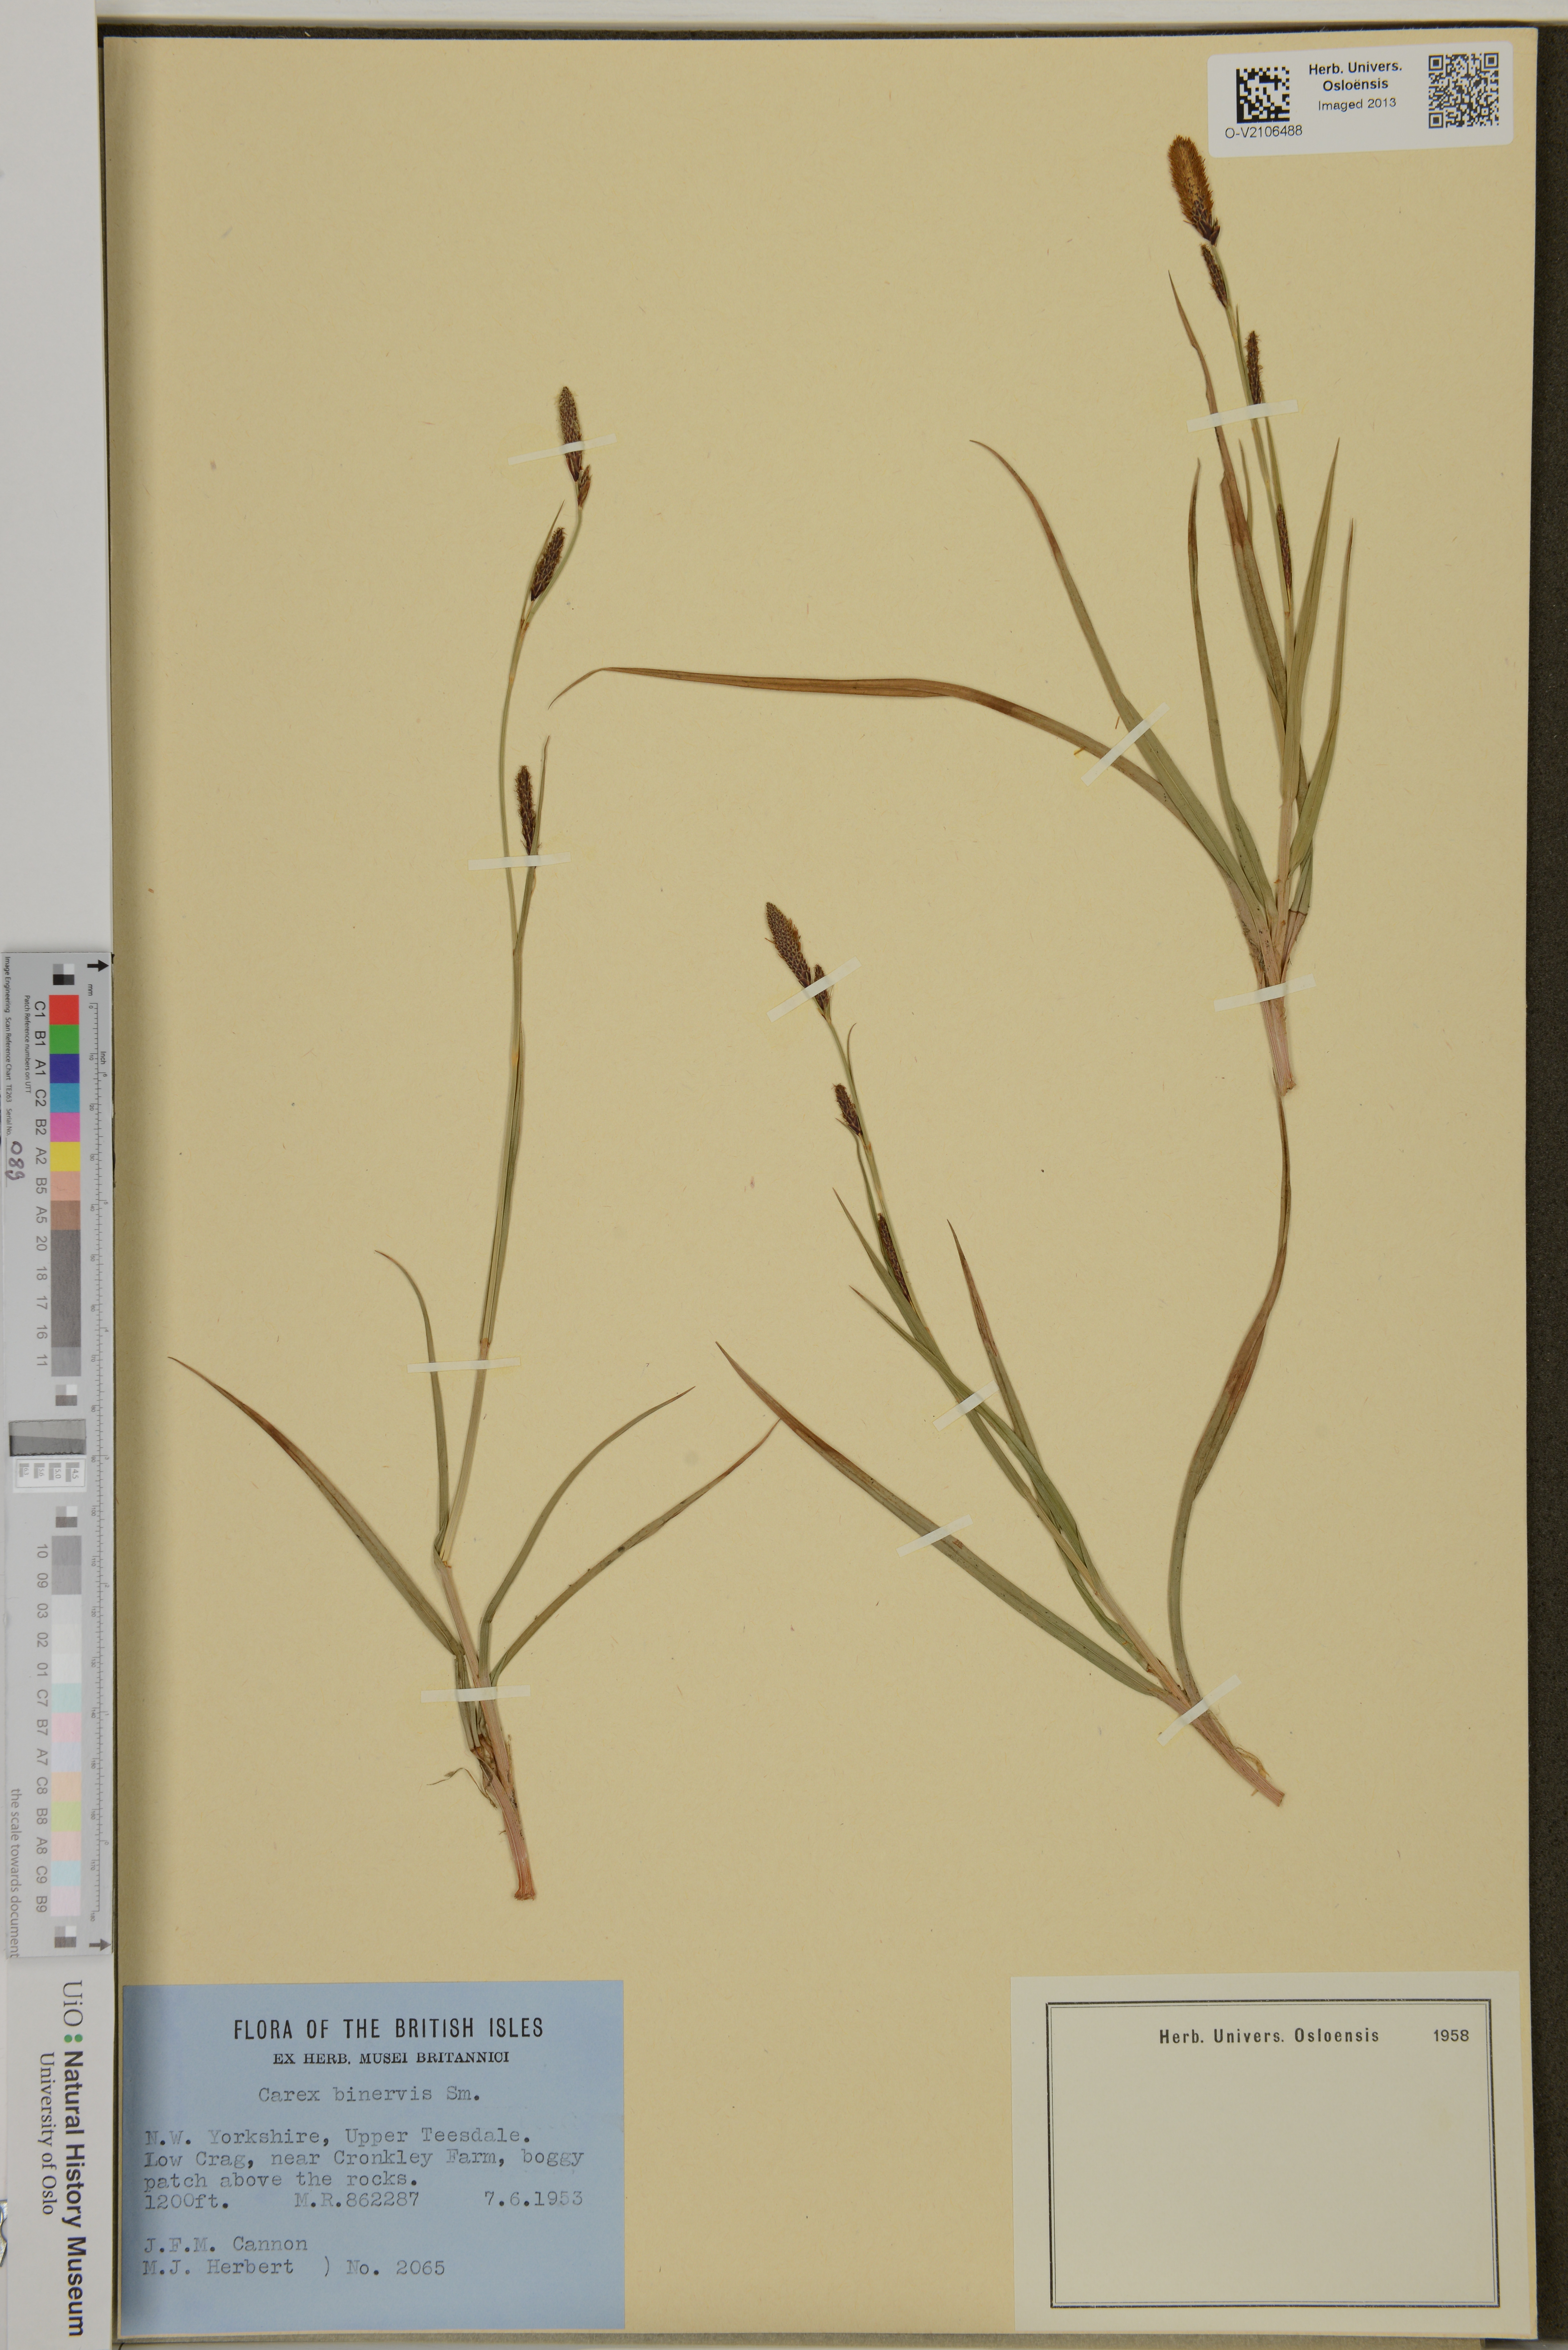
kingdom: Plantae
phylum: Tracheophyta
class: Liliopsida
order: Poales
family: Cyperaceae
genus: Carex
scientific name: Carex binervis
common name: Green-ribbed sedge
